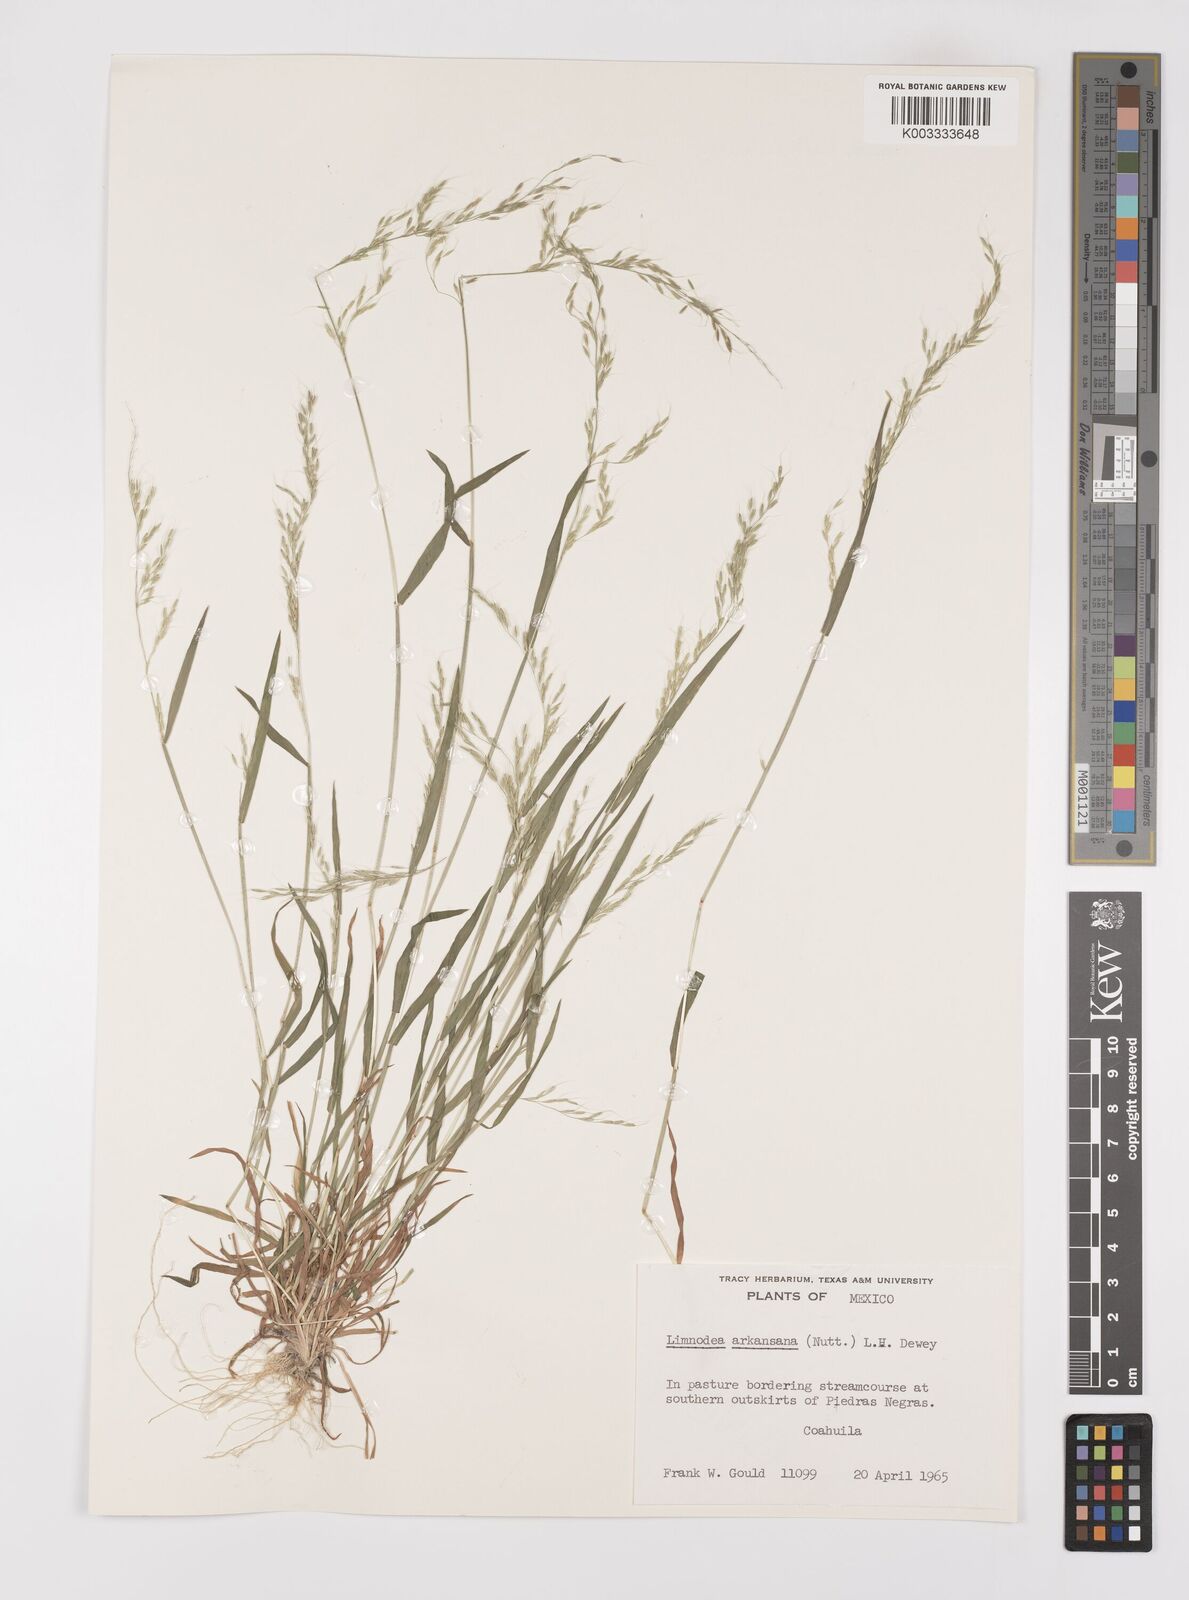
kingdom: Plantae
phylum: Tracheophyta
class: Liliopsida
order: Poales
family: Poaceae
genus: Limnodea
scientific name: Limnodea arkansana
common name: Ozark-grass
